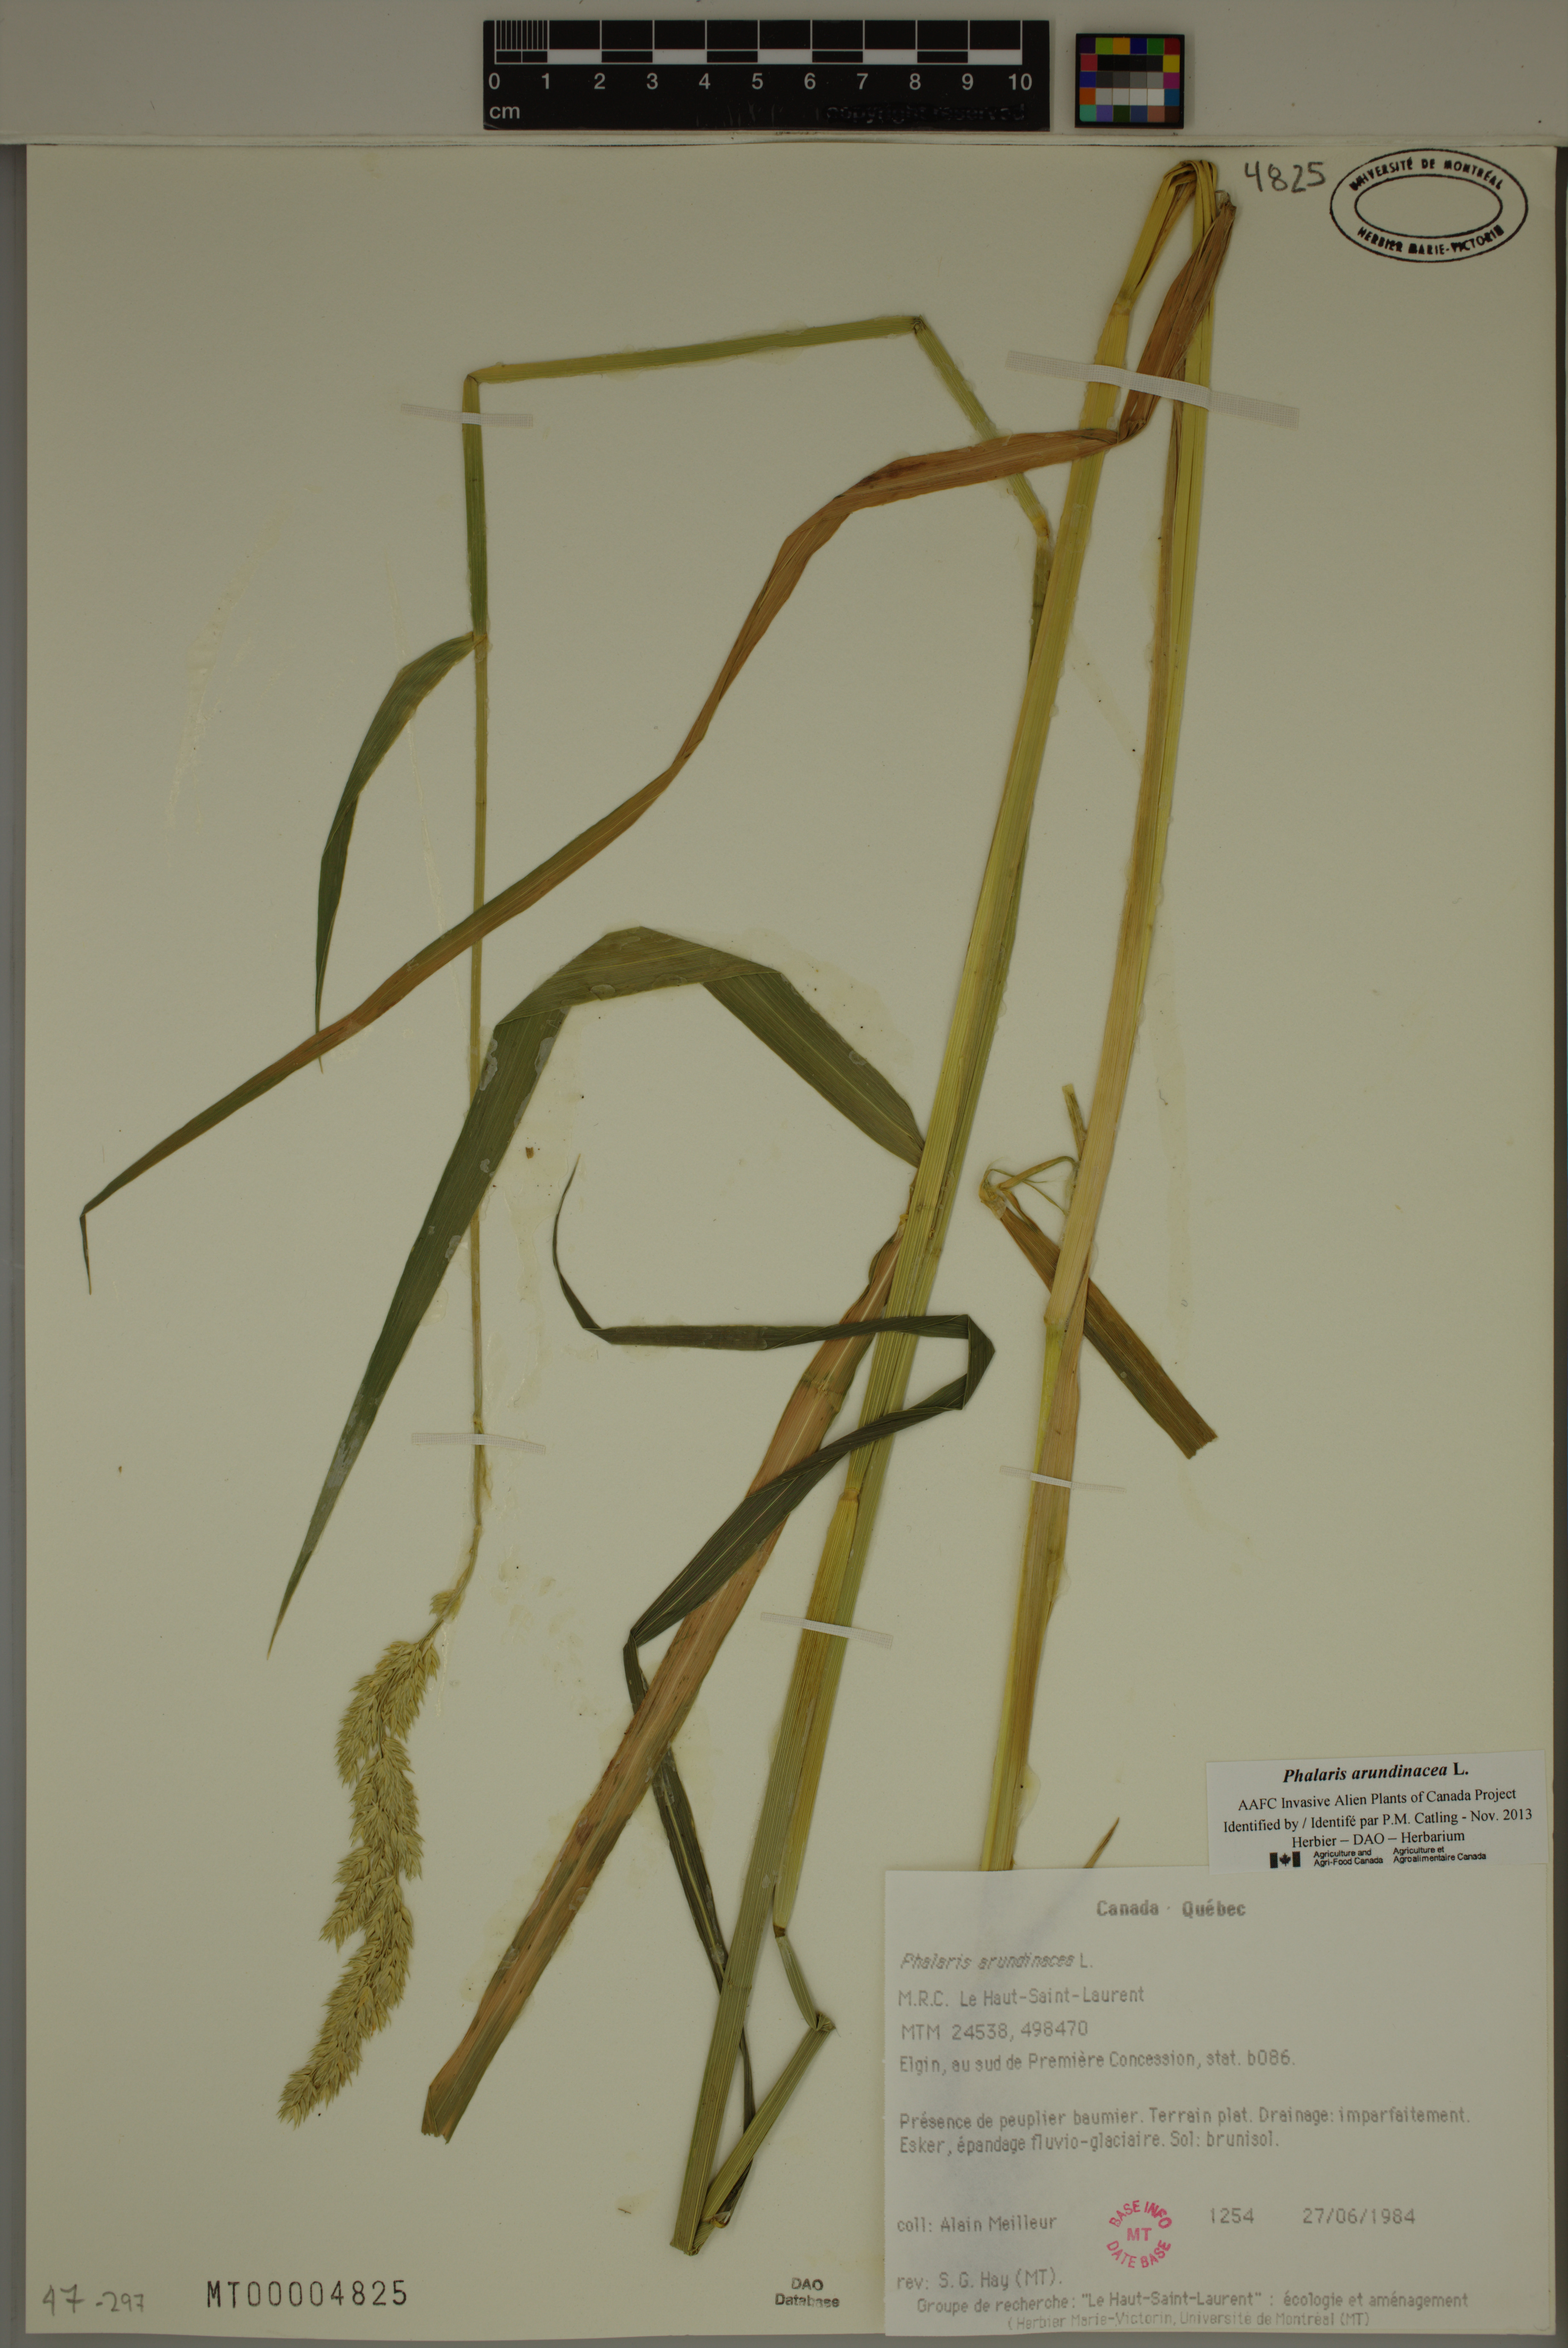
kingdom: Plantae
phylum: Tracheophyta
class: Liliopsida
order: Poales
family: Poaceae
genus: Phalaris
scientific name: Phalaris arundinacea
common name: Reed canary-grass
